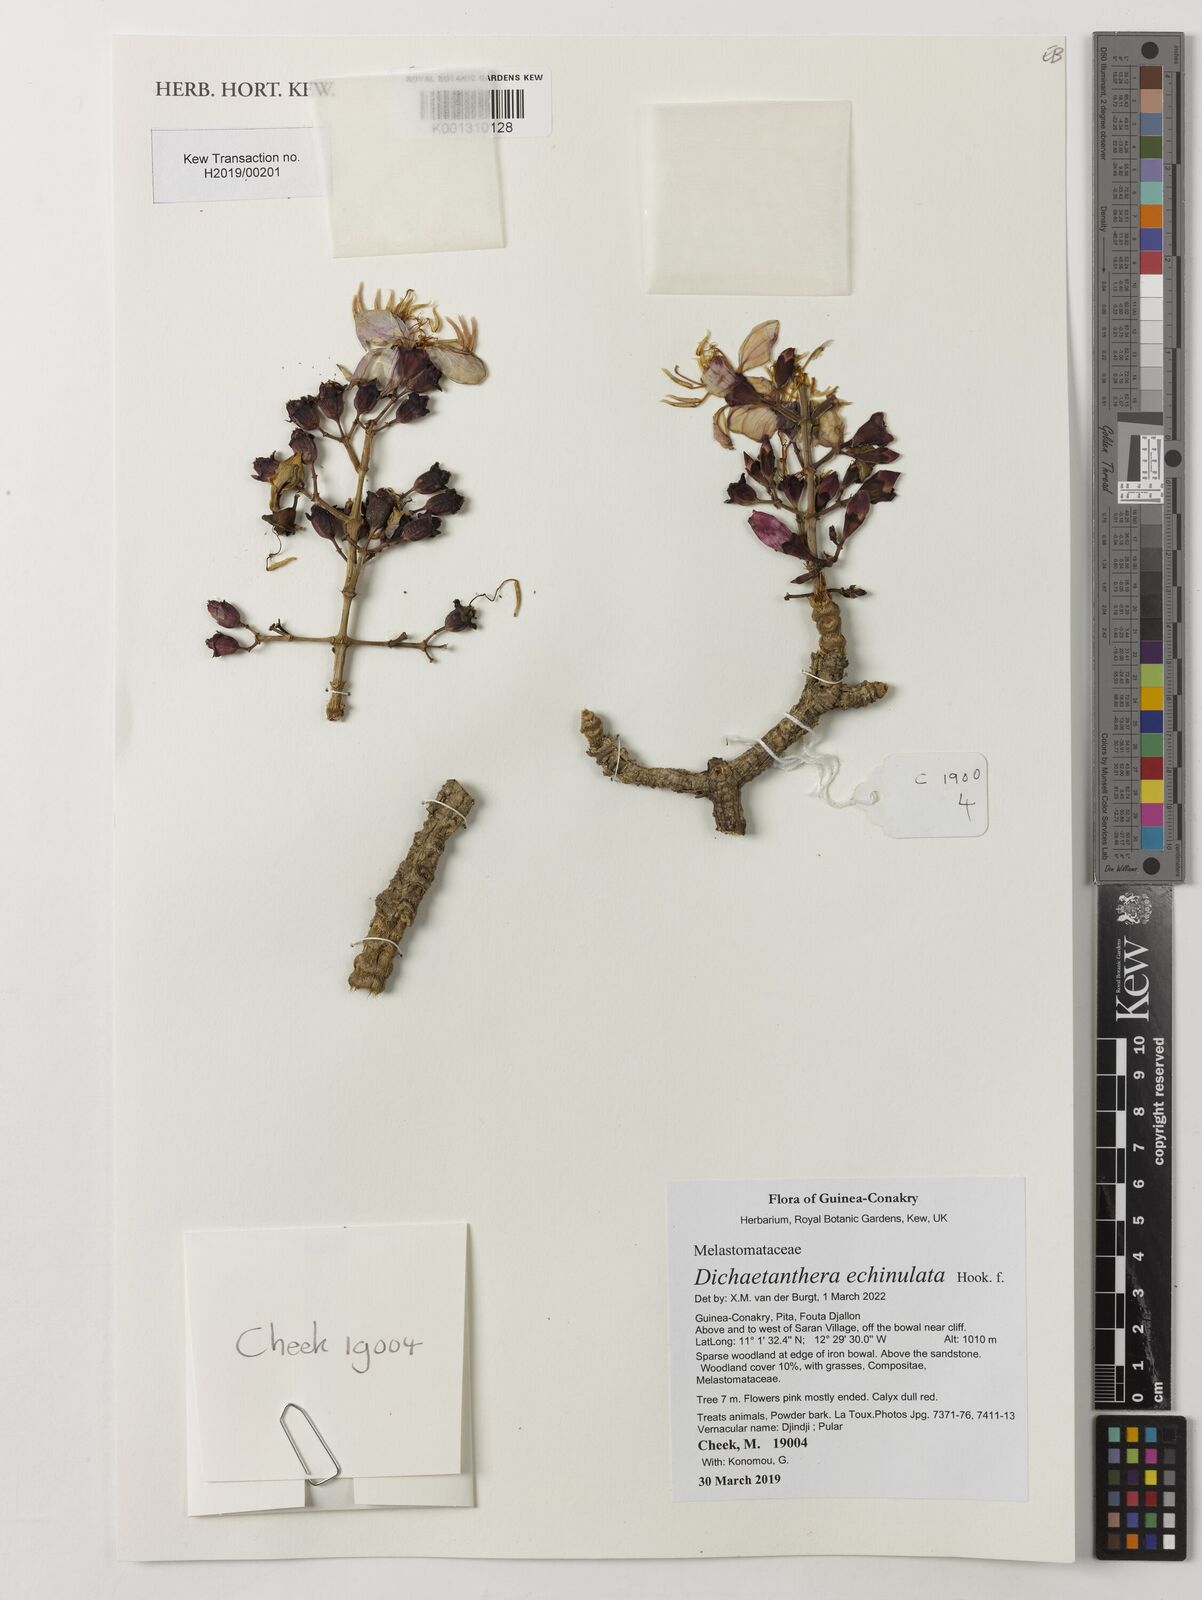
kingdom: Plantae
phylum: Tracheophyta
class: Magnoliopsida
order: Myrtales
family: Melastomataceae
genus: Dichaetanthera
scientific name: Dichaetanthera echinulata
